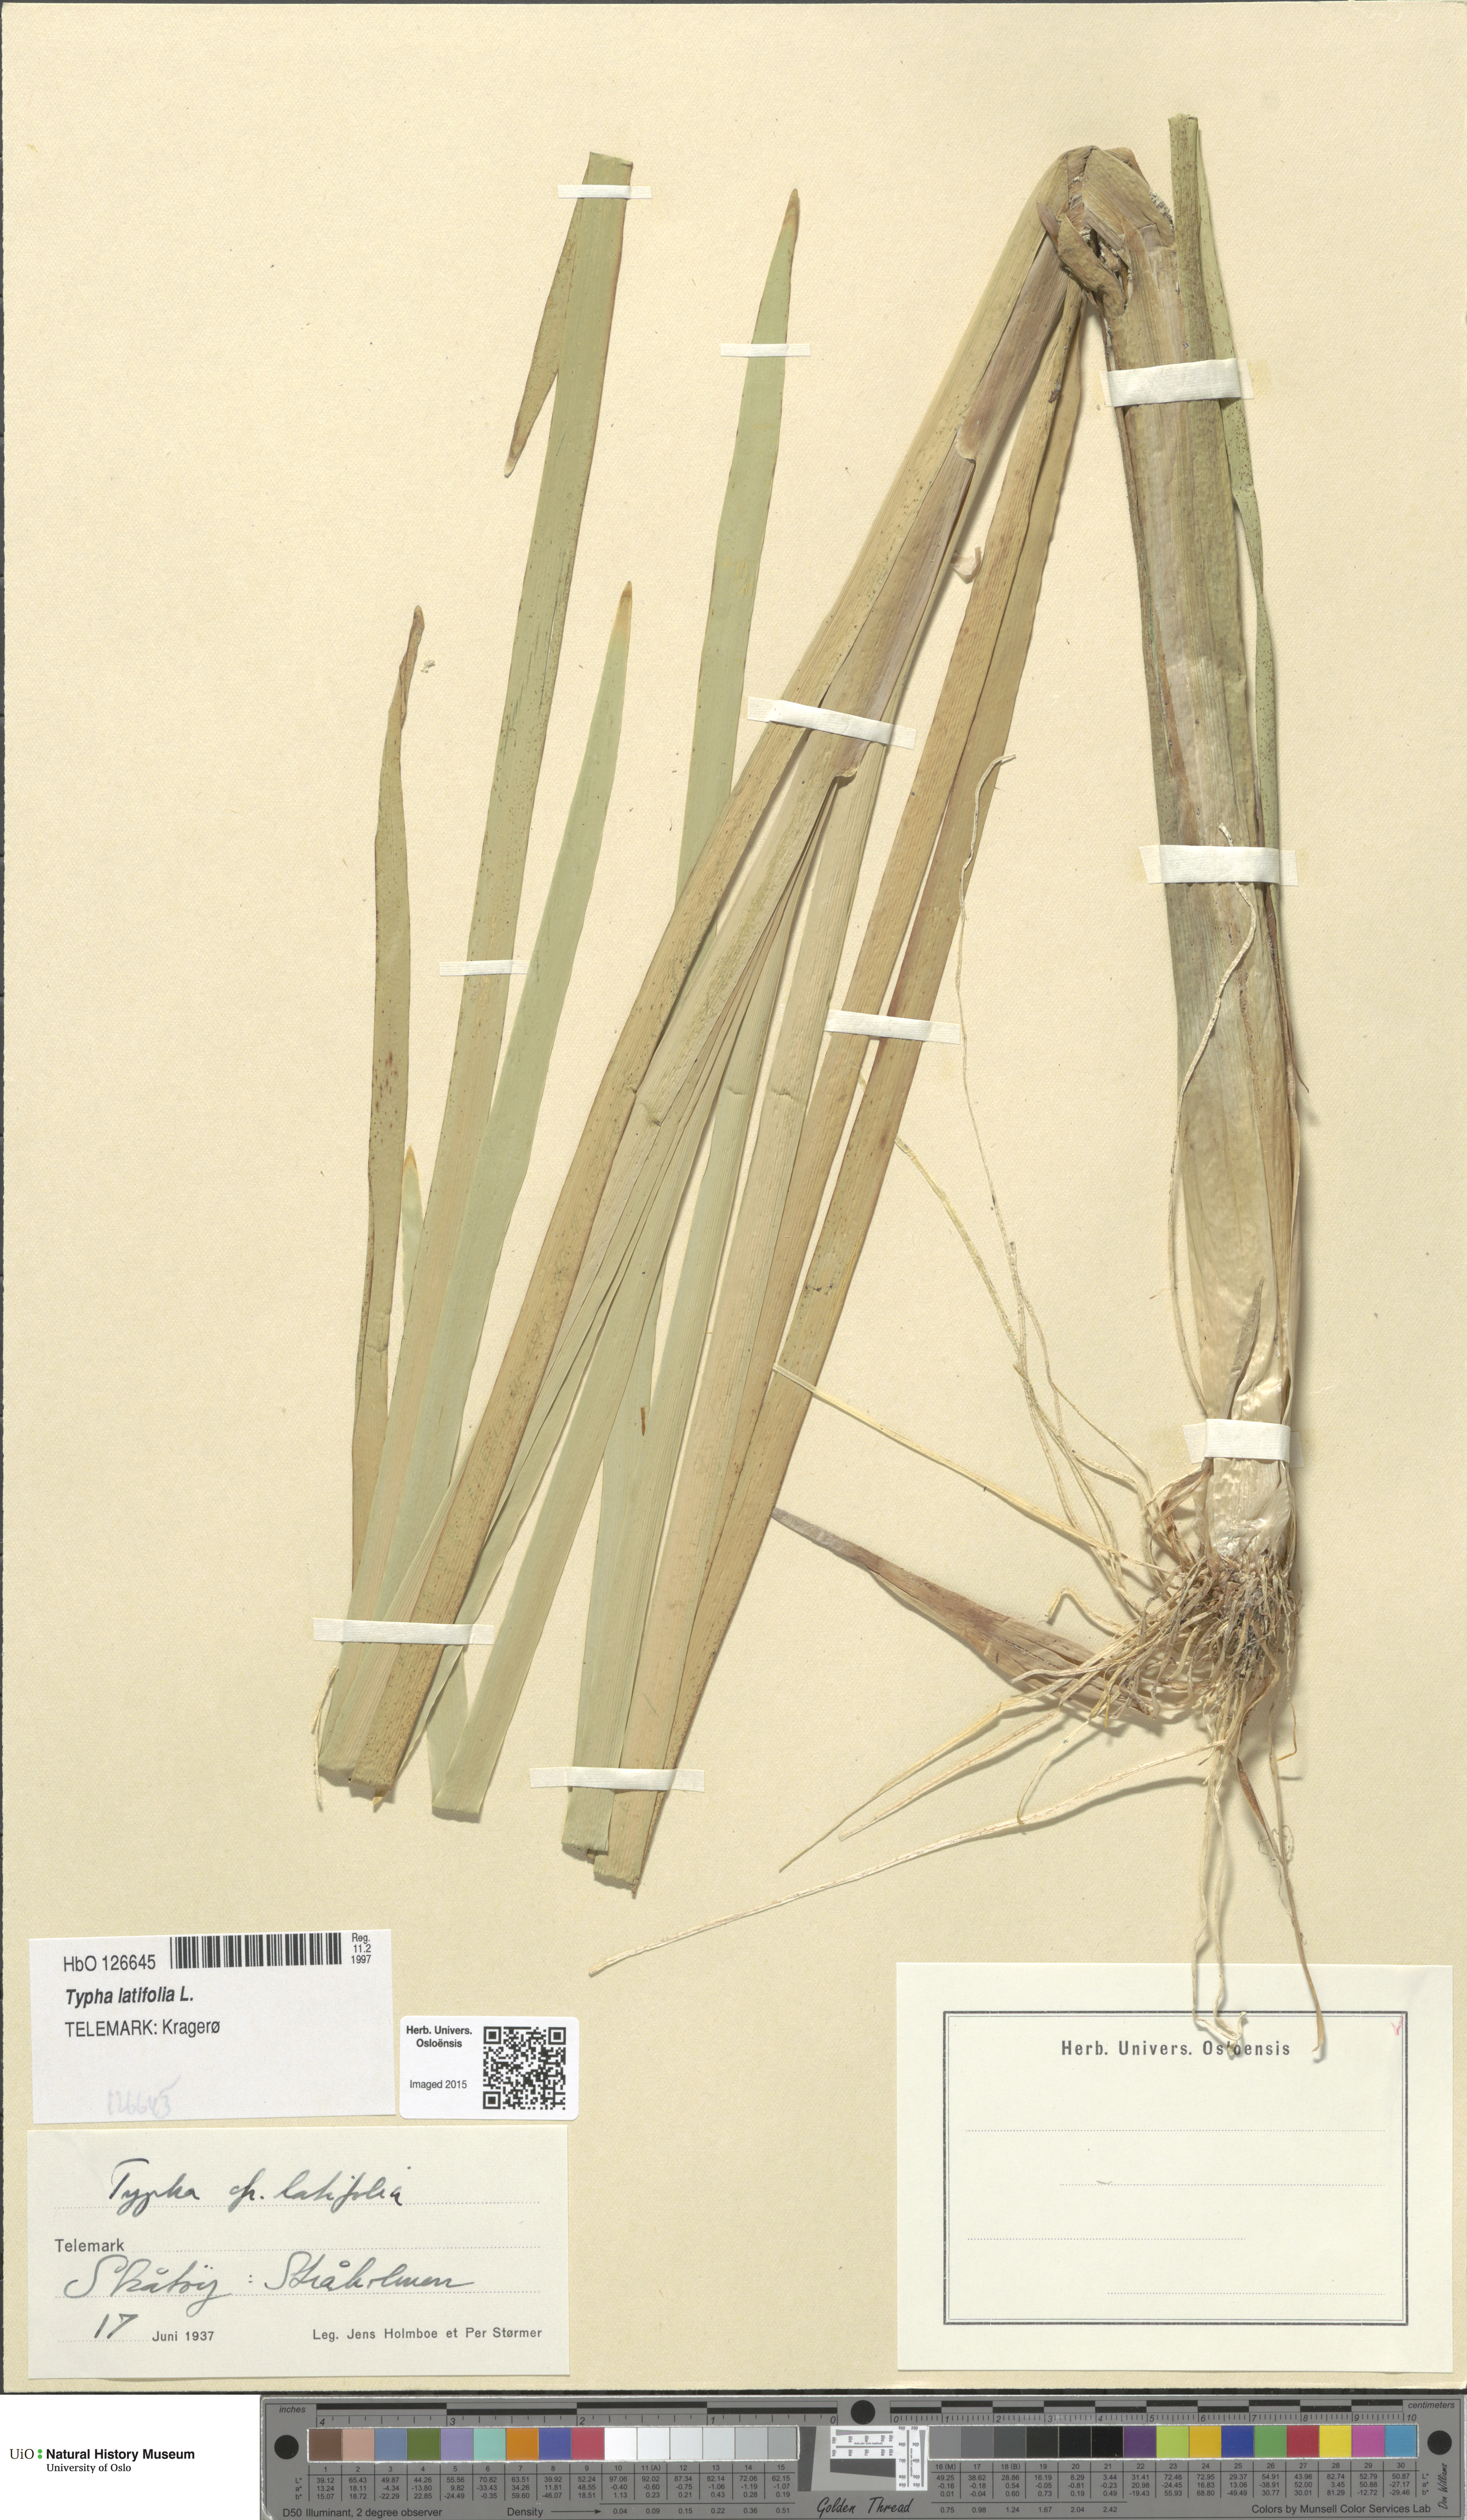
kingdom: Plantae
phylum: Tracheophyta
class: Liliopsida
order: Poales
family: Typhaceae
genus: Typha
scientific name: Typha latifolia
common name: Broadleaf cattail
